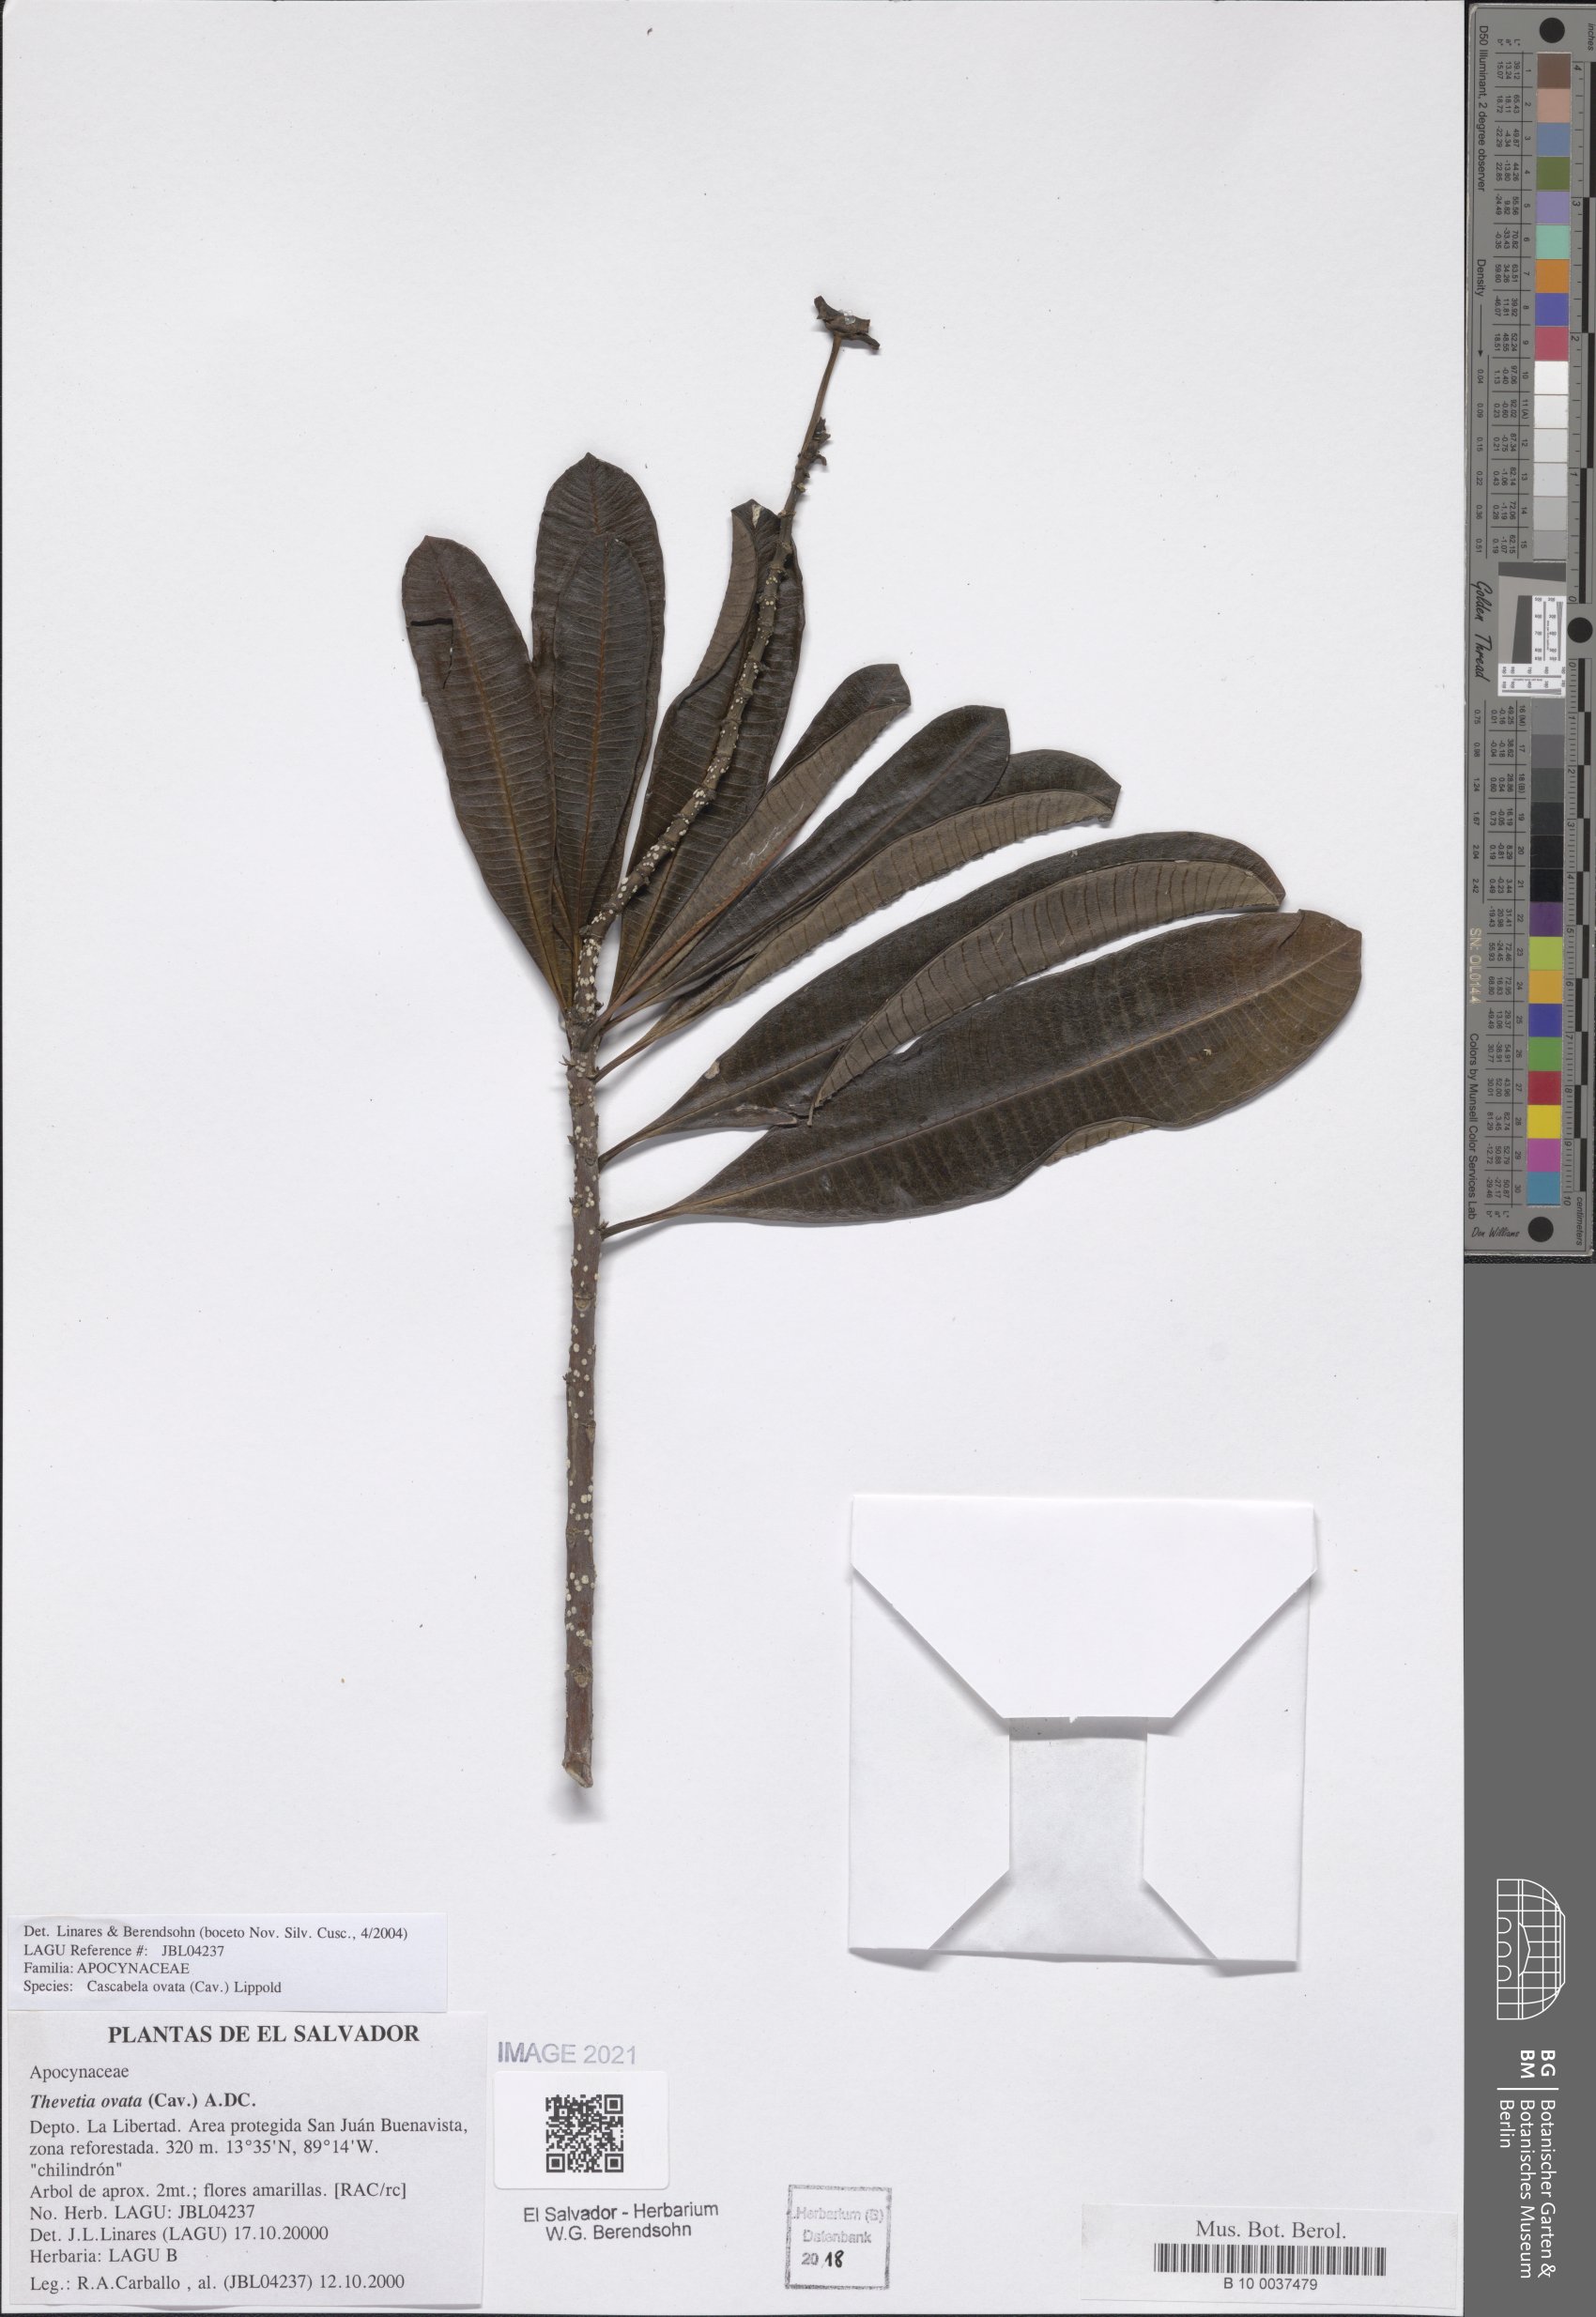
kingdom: Plantae
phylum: Tracheophyta
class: Magnoliopsida
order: Gentianales
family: Apocynaceae
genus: Cascabela
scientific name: Cascabela ovata
